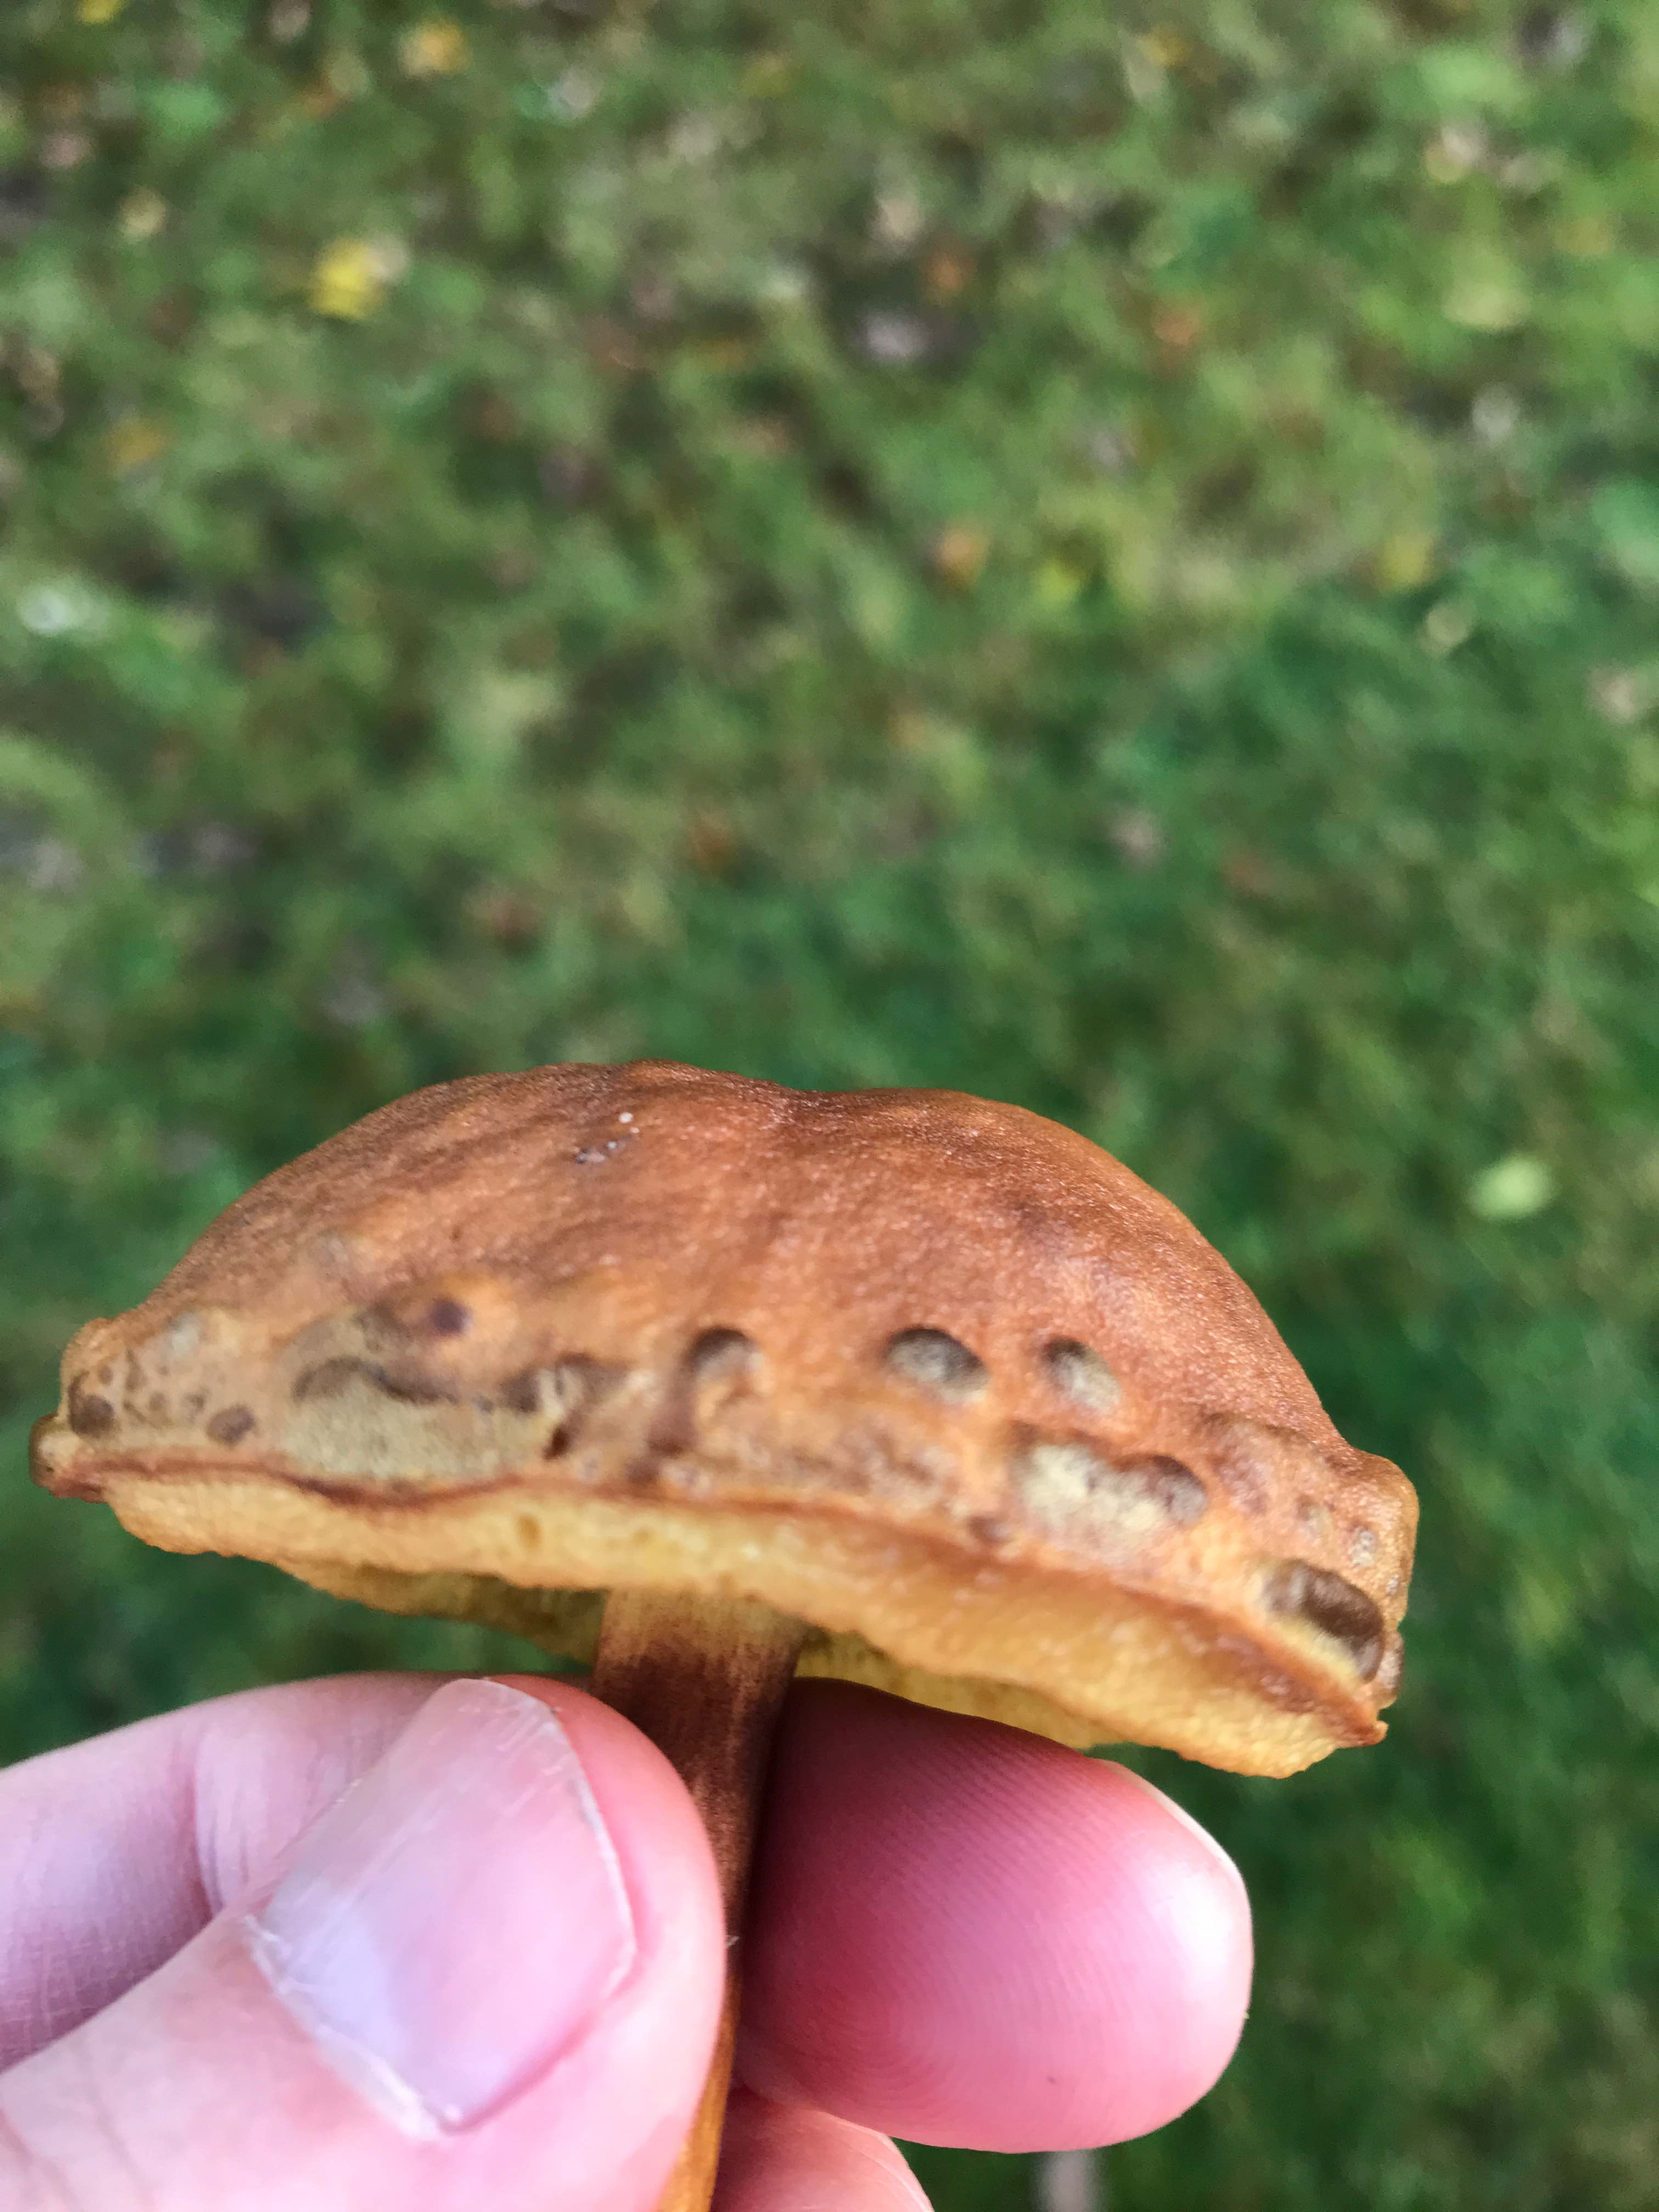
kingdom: Fungi
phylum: Basidiomycota
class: Agaricomycetes
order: Boletales
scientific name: Boletales
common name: rørhatordenen
